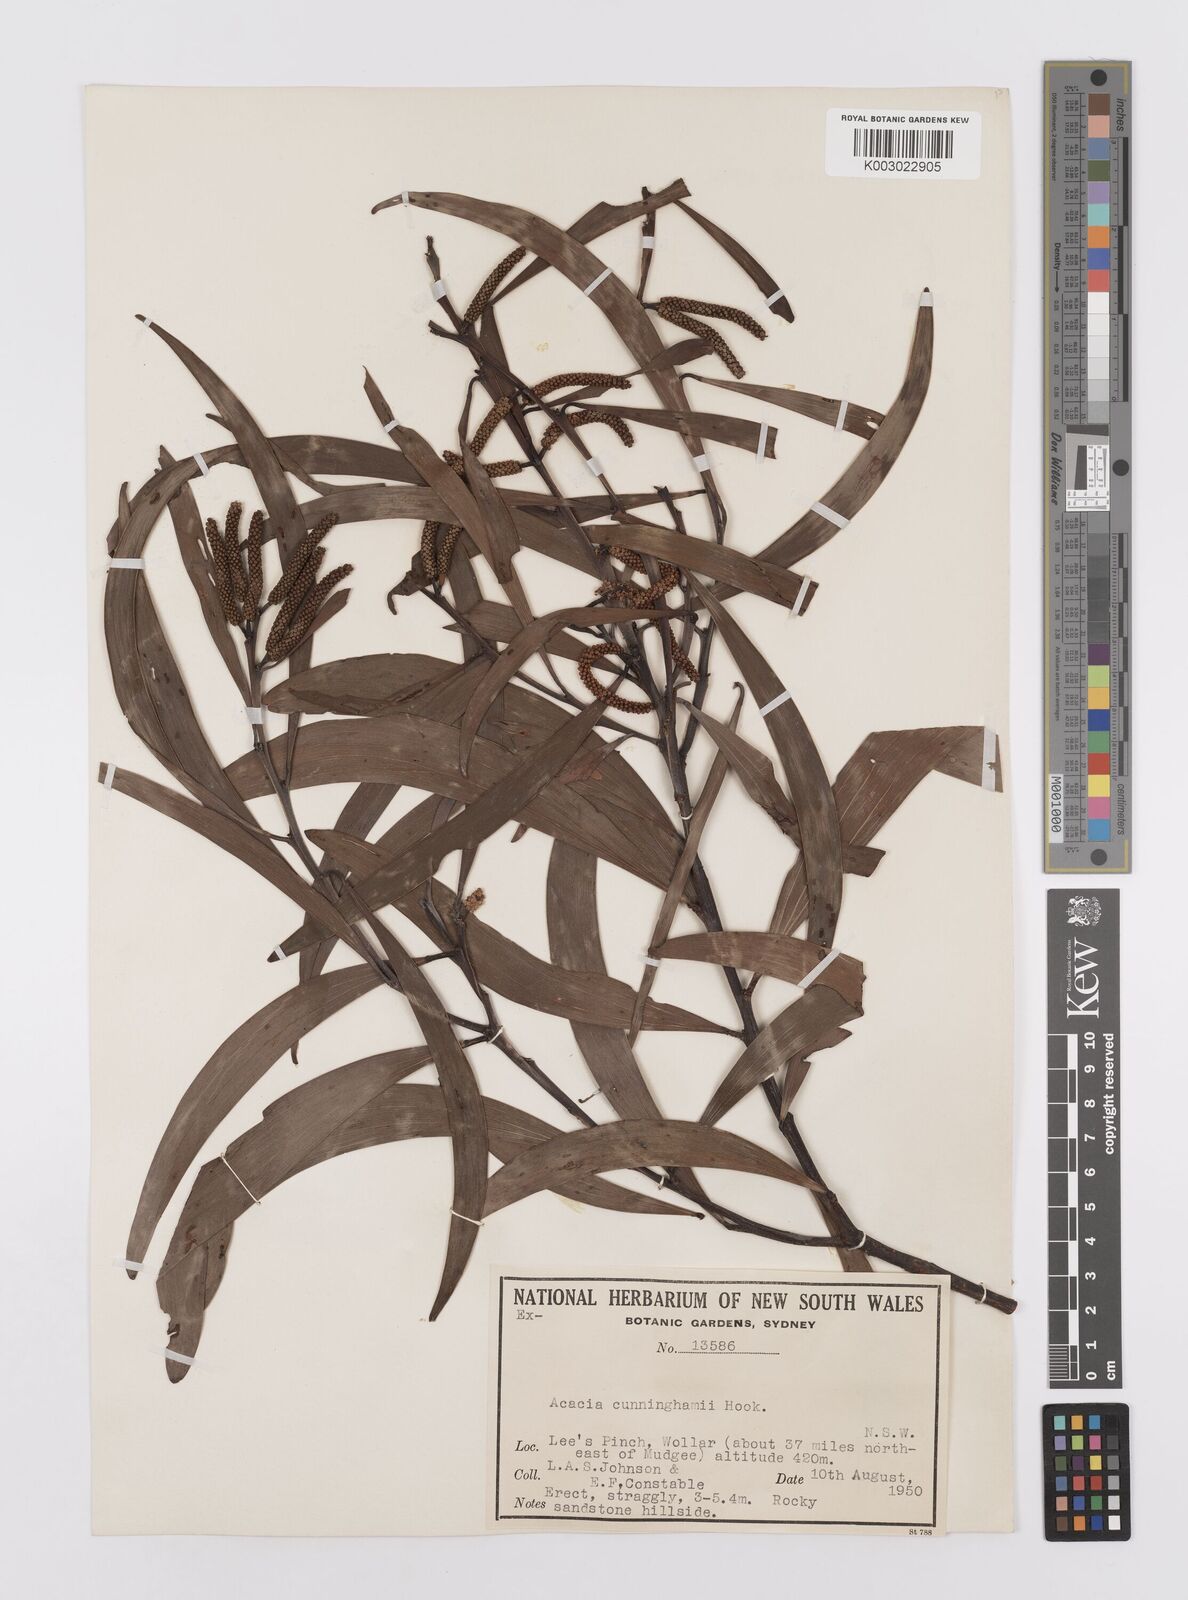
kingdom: Plantae
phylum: Tracheophyta
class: Magnoliopsida
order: Fabales
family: Fabaceae
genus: Acacia
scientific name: Acacia longispicata
